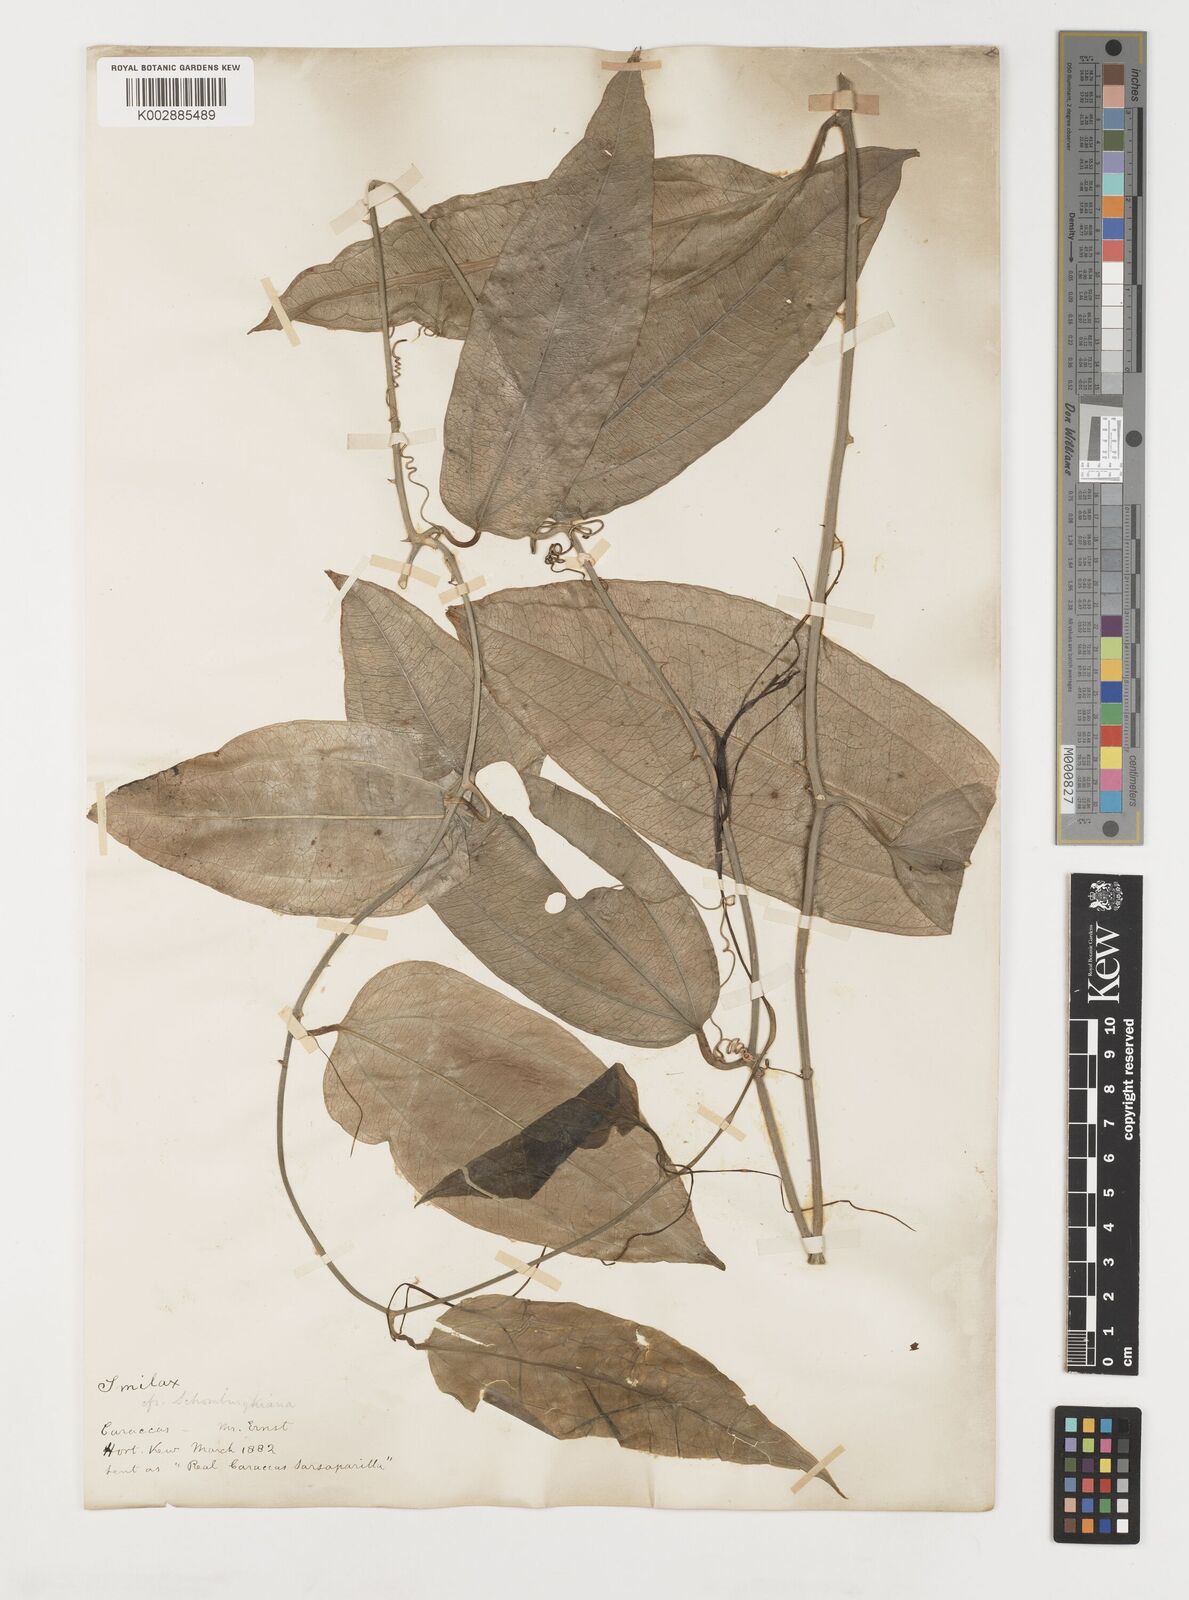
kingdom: Plantae
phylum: Tracheophyta
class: Liliopsida
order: Liliales
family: Smilacaceae
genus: Smilax
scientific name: Smilax
